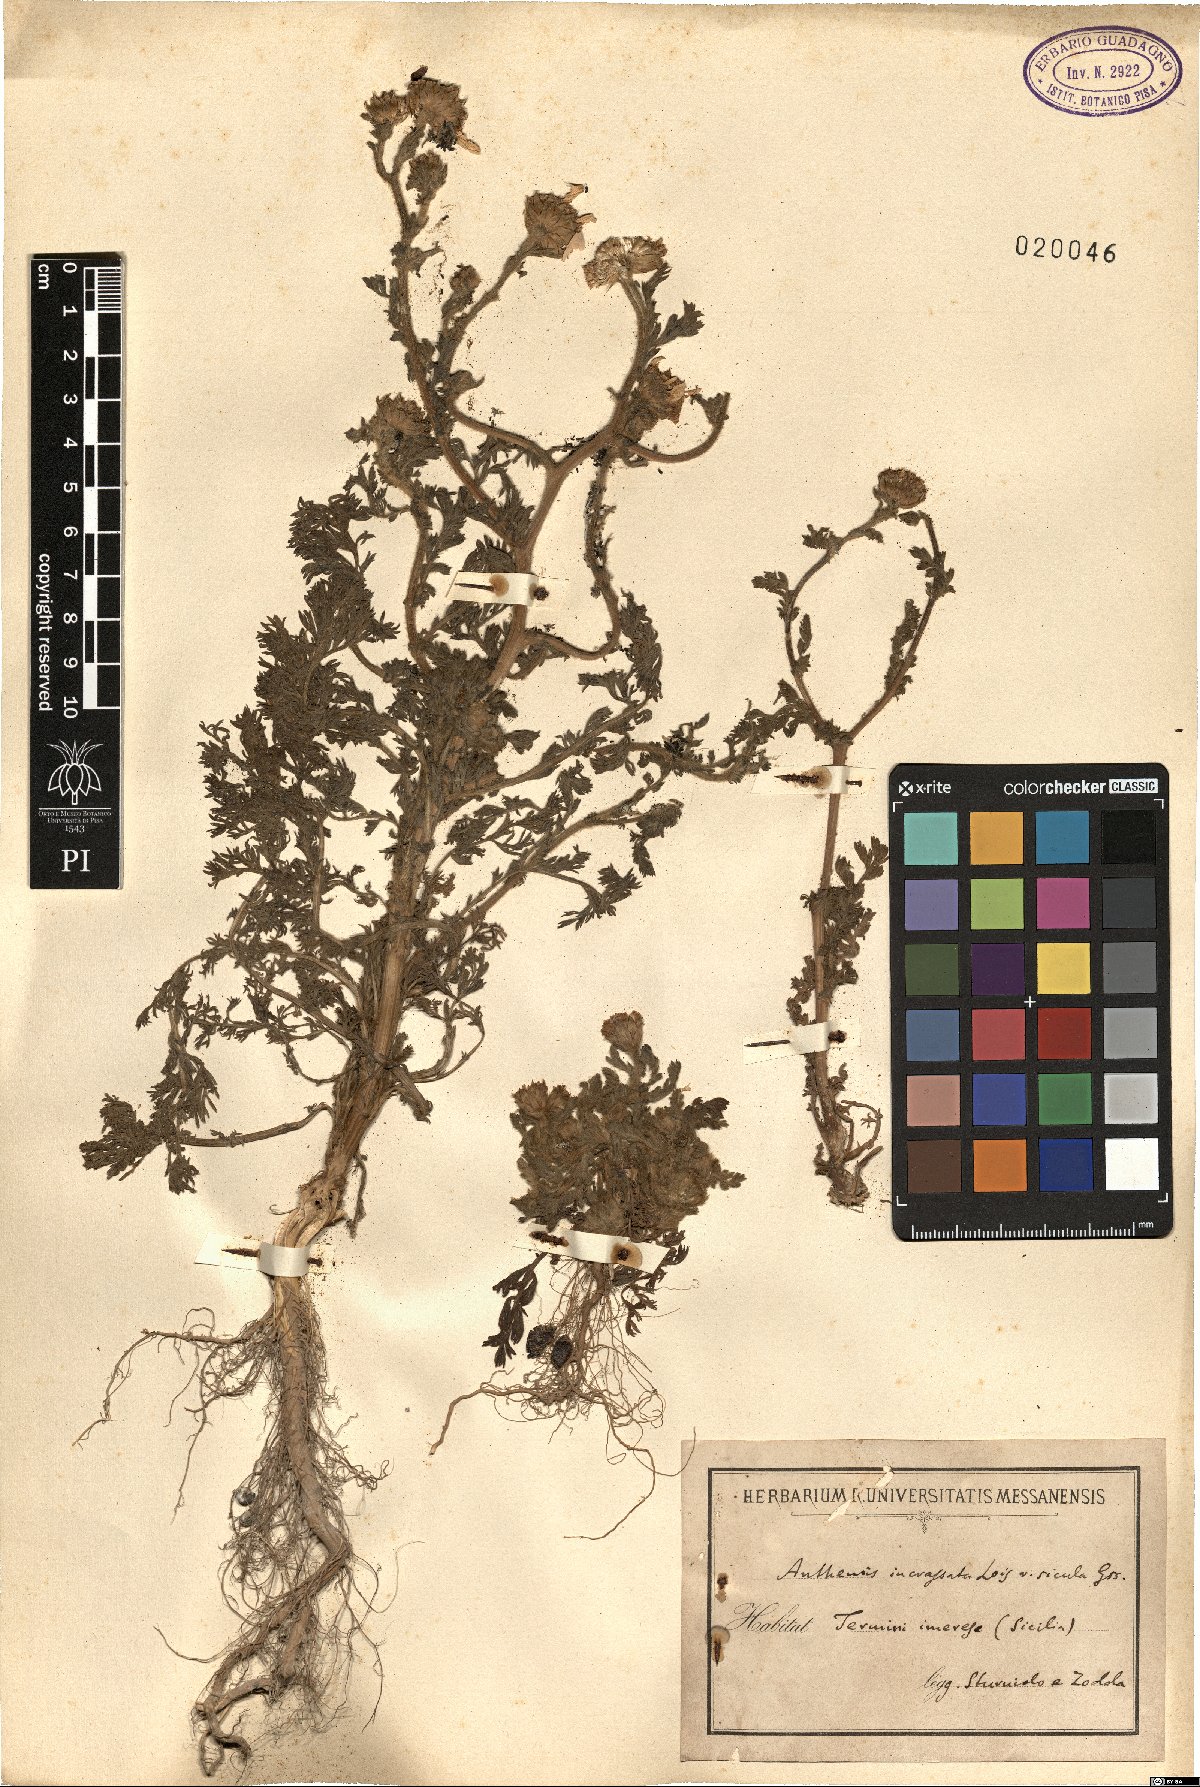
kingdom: Plantae
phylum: Tracheophyta
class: Magnoliopsida
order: Asterales
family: Asteraceae
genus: Anthemis
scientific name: Anthemis arvensis
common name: Corn chamomile
